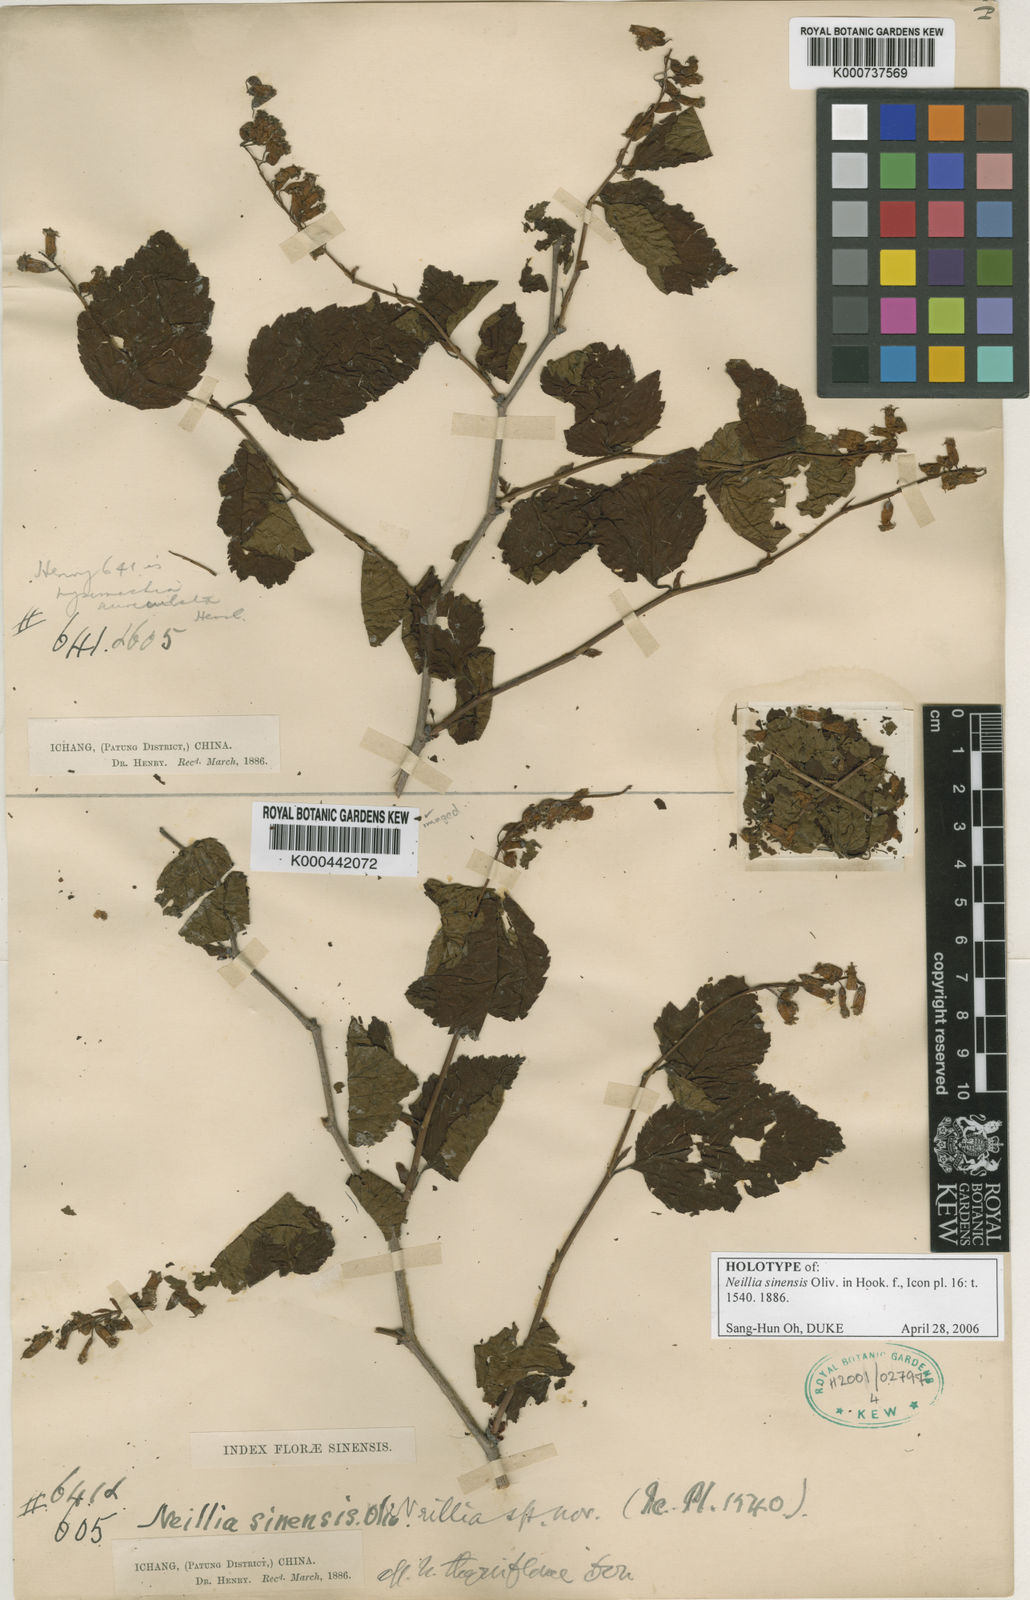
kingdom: Plantae
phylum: Tracheophyta
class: Magnoliopsida
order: Rosales
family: Rosaceae
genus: Neillia
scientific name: Neillia sinensis
